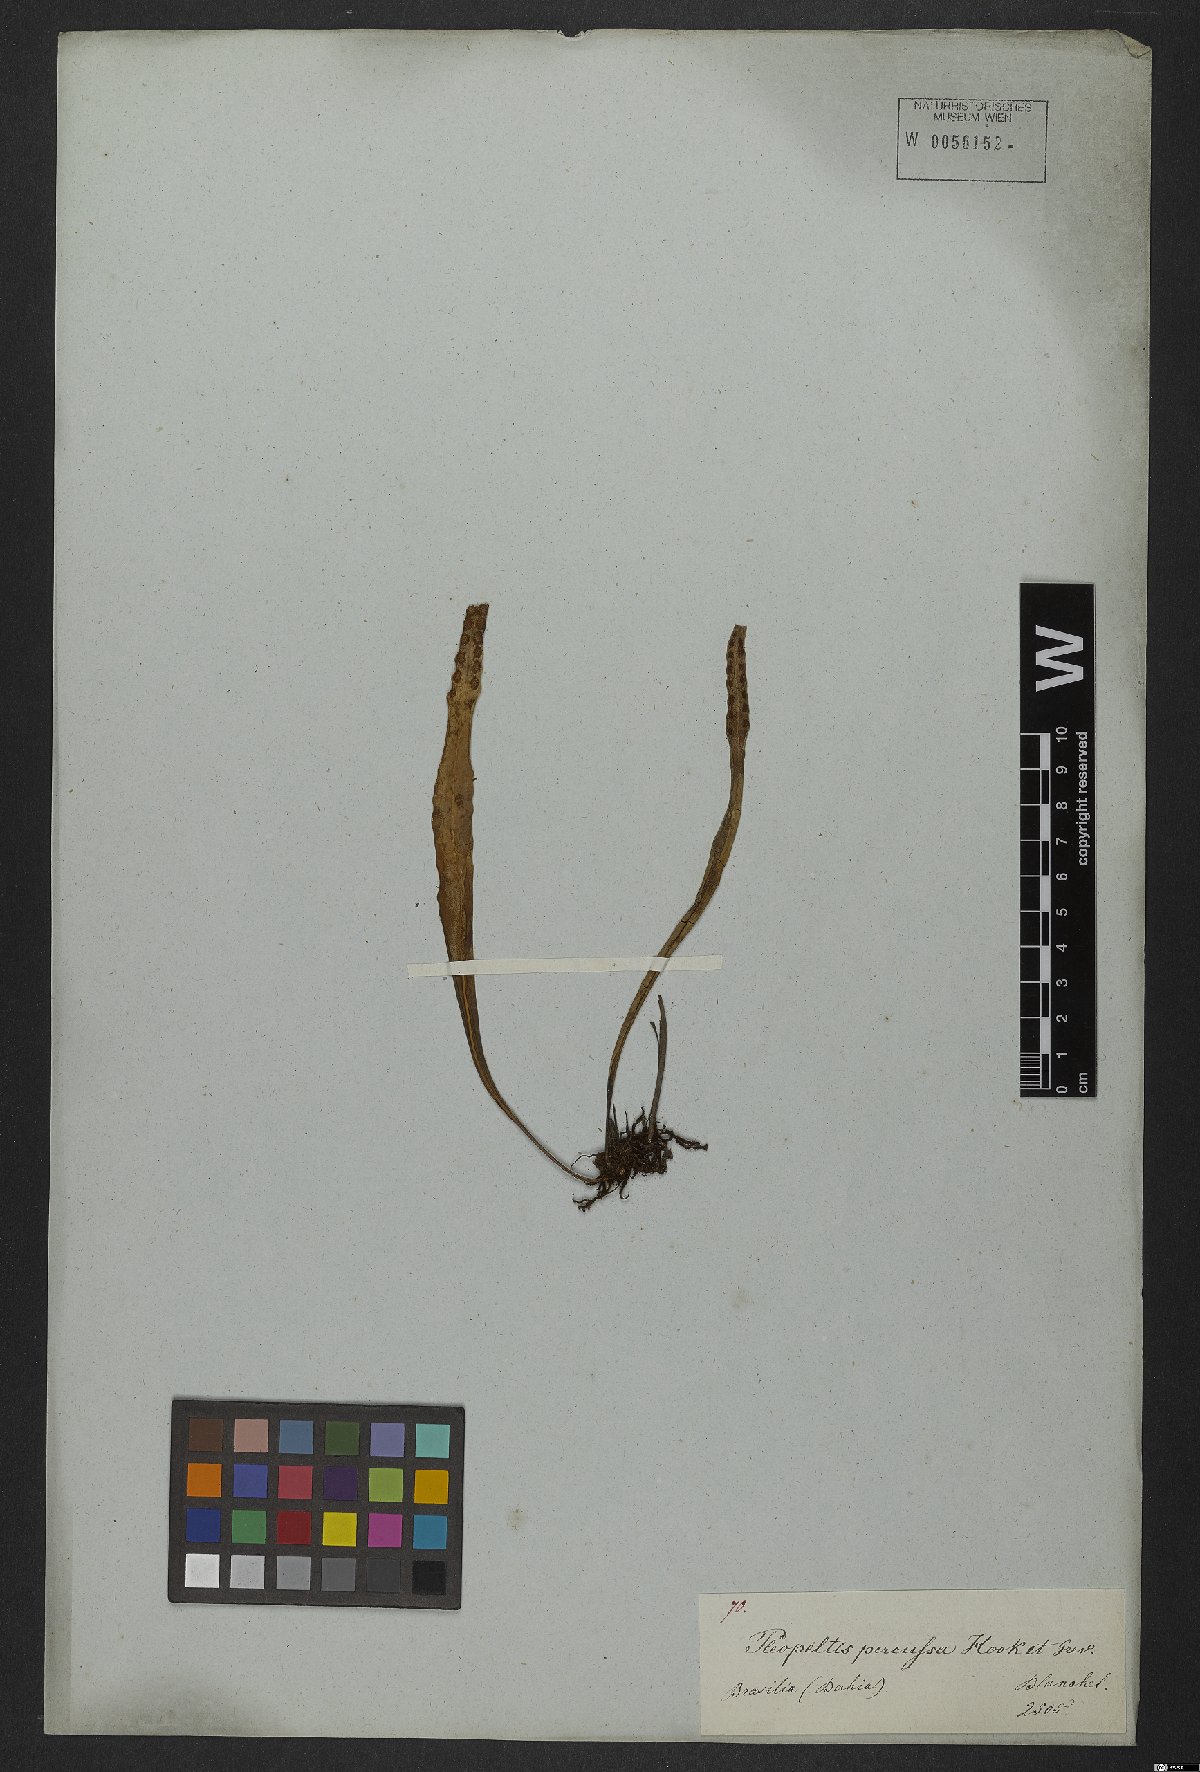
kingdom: Plantae
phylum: Tracheophyta
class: Polypodiopsida
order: Polypodiales
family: Polypodiaceae
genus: Microgramma
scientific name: Microgramma percussa
